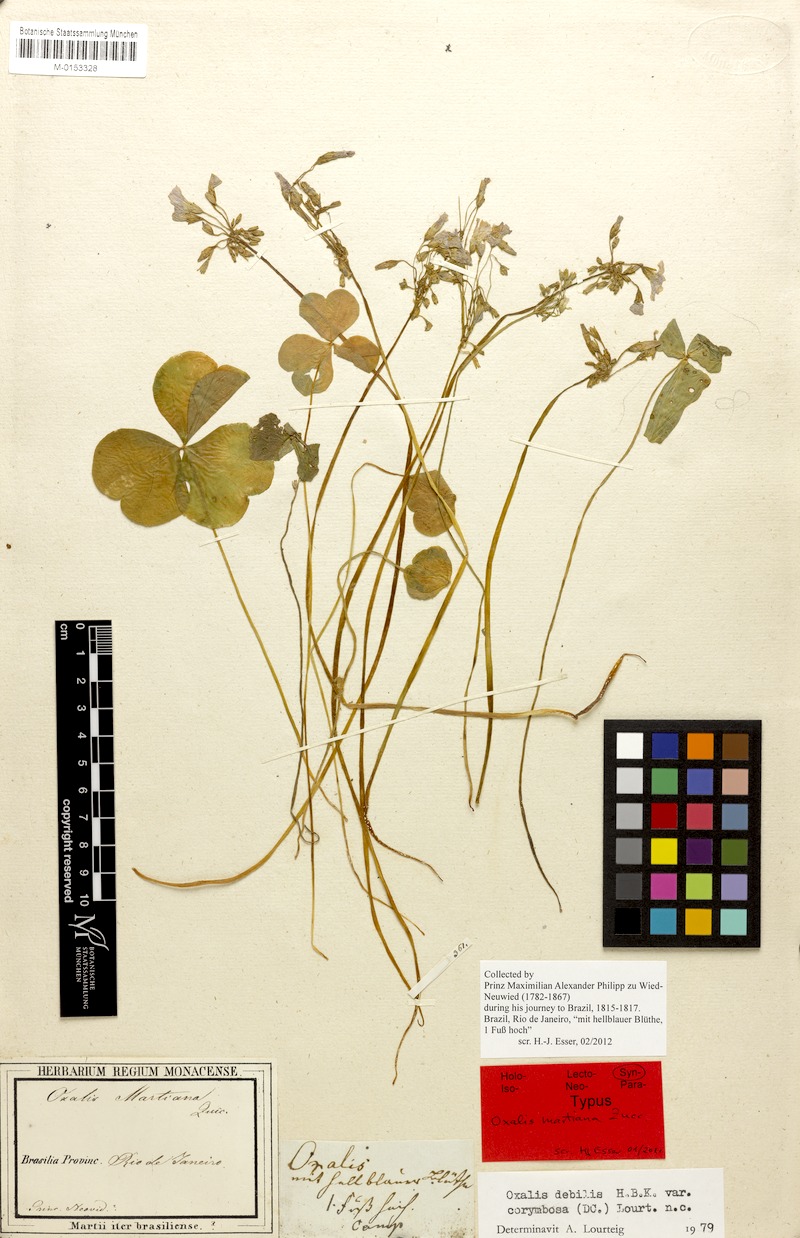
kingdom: Plantae
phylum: Tracheophyta
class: Magnoliopsida
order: Oxalidales
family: Oxalidaceae
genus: Oxalis
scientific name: Oxalis debilis
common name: Large-flowered pink-sorrel
